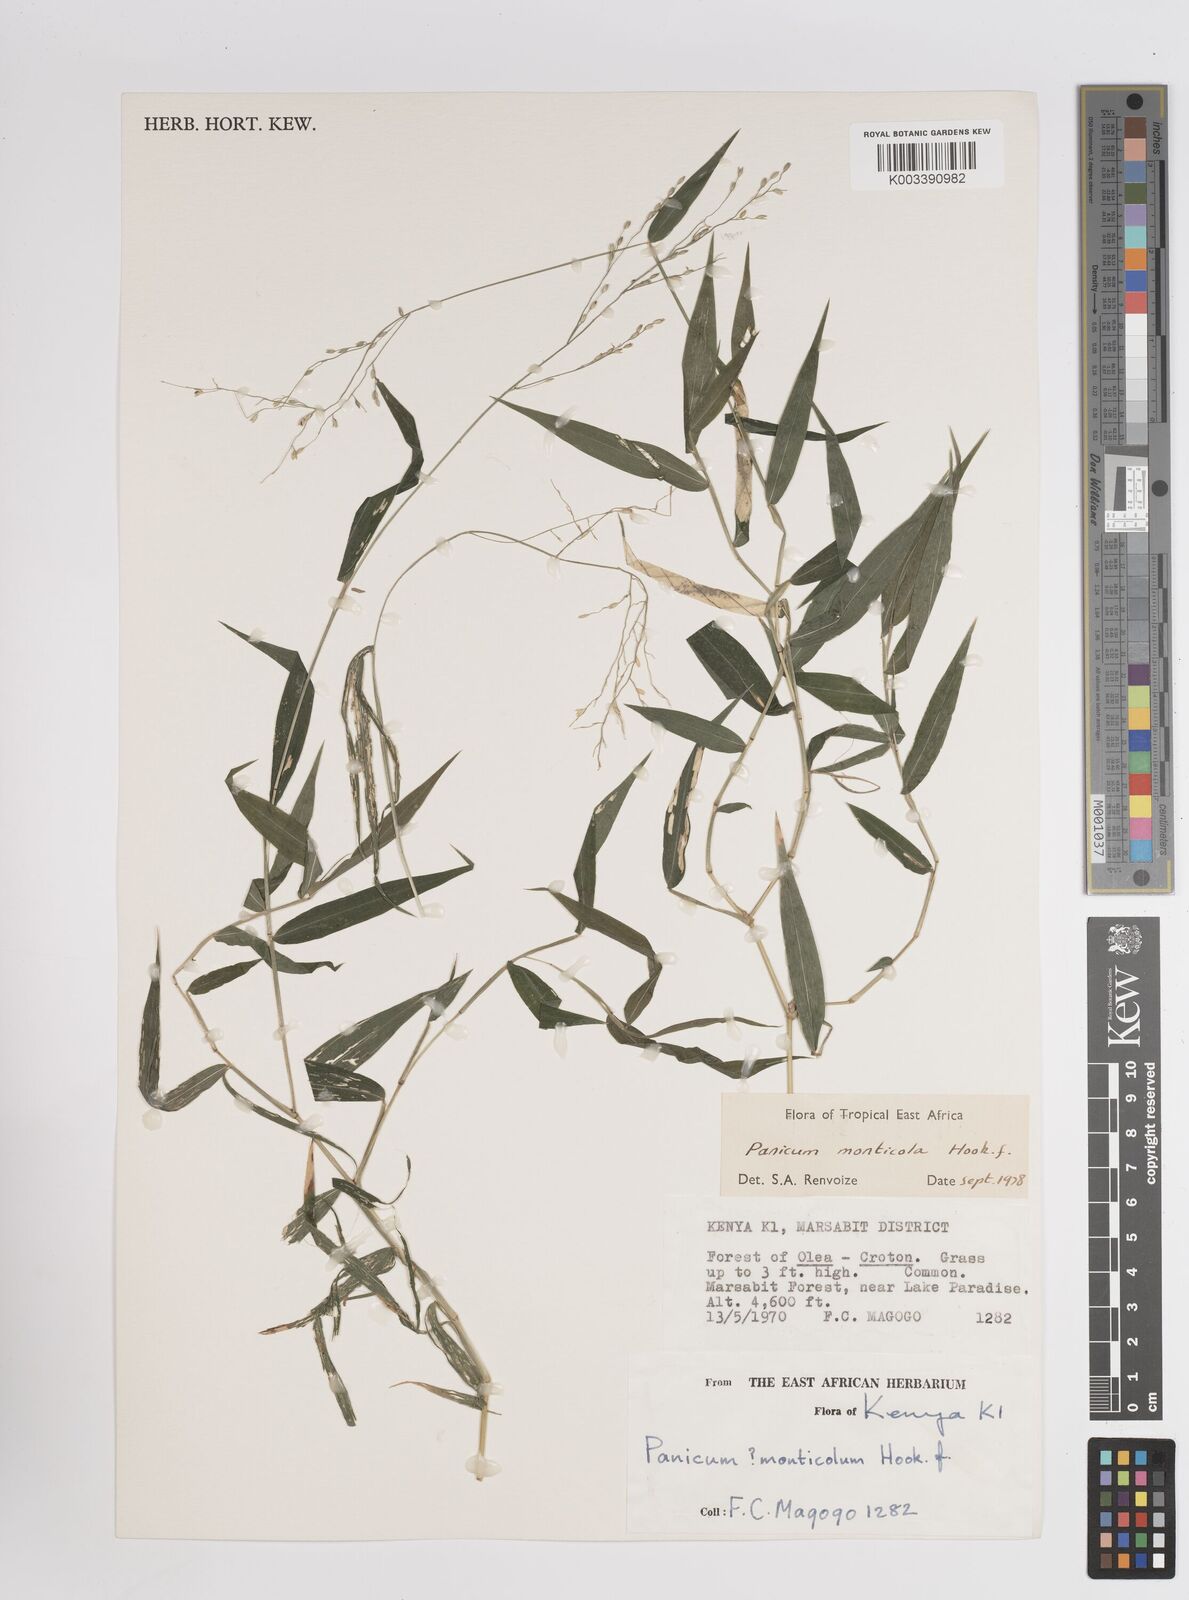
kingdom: Plantae
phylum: Tracheophyta
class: Liliopsida
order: Poales
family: Poaceae
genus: Panicum
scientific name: Panicum monticola
